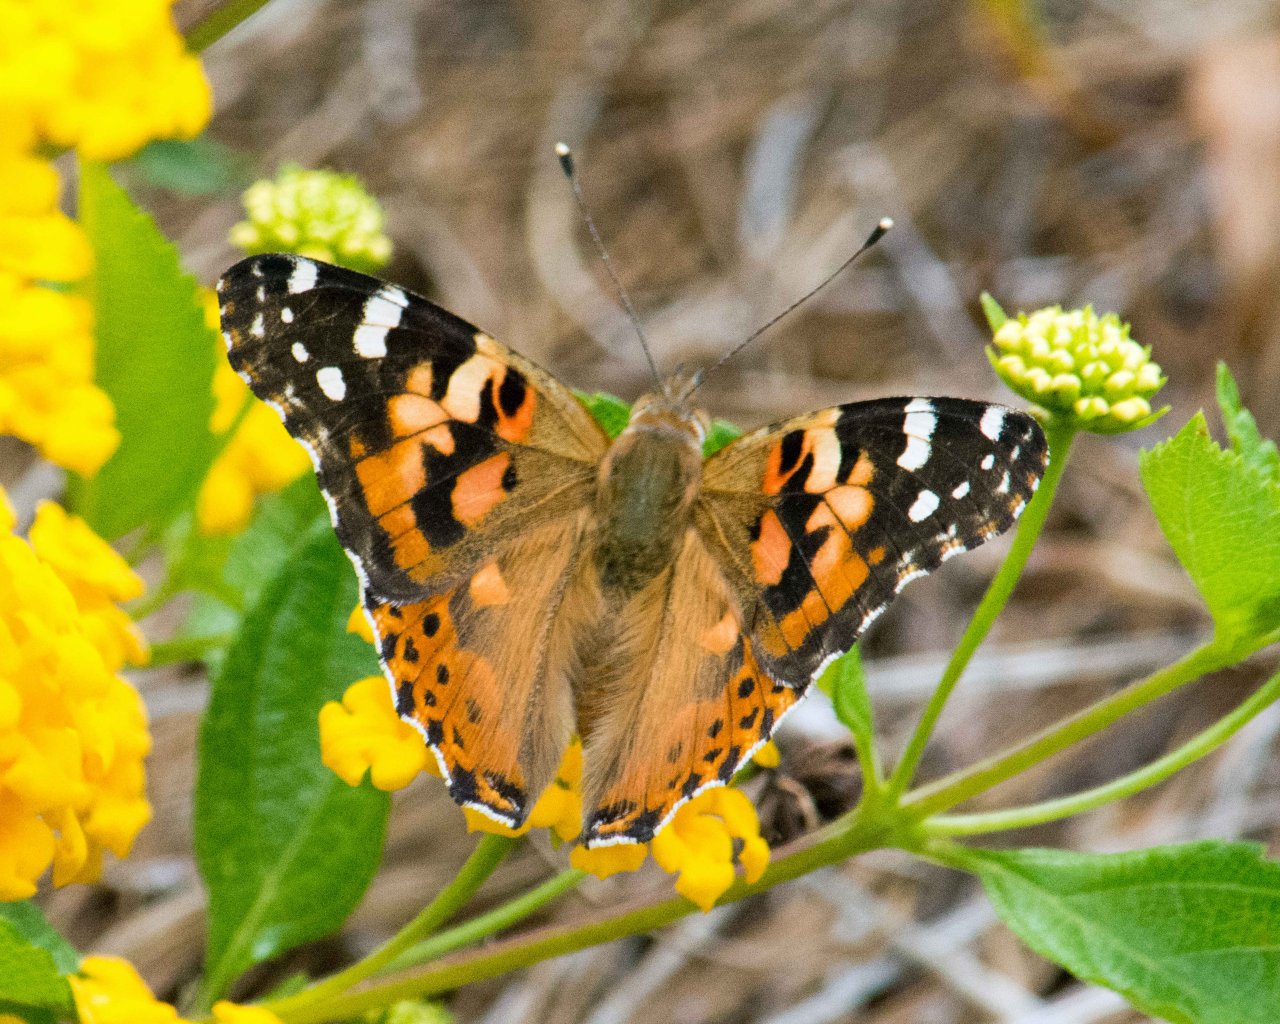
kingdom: Animalia
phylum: Arthropoda
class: Insecta
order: Lepidoptera
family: Nymphalidae
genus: Vanessa
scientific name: Vanessa cardui
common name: Painted Lady
